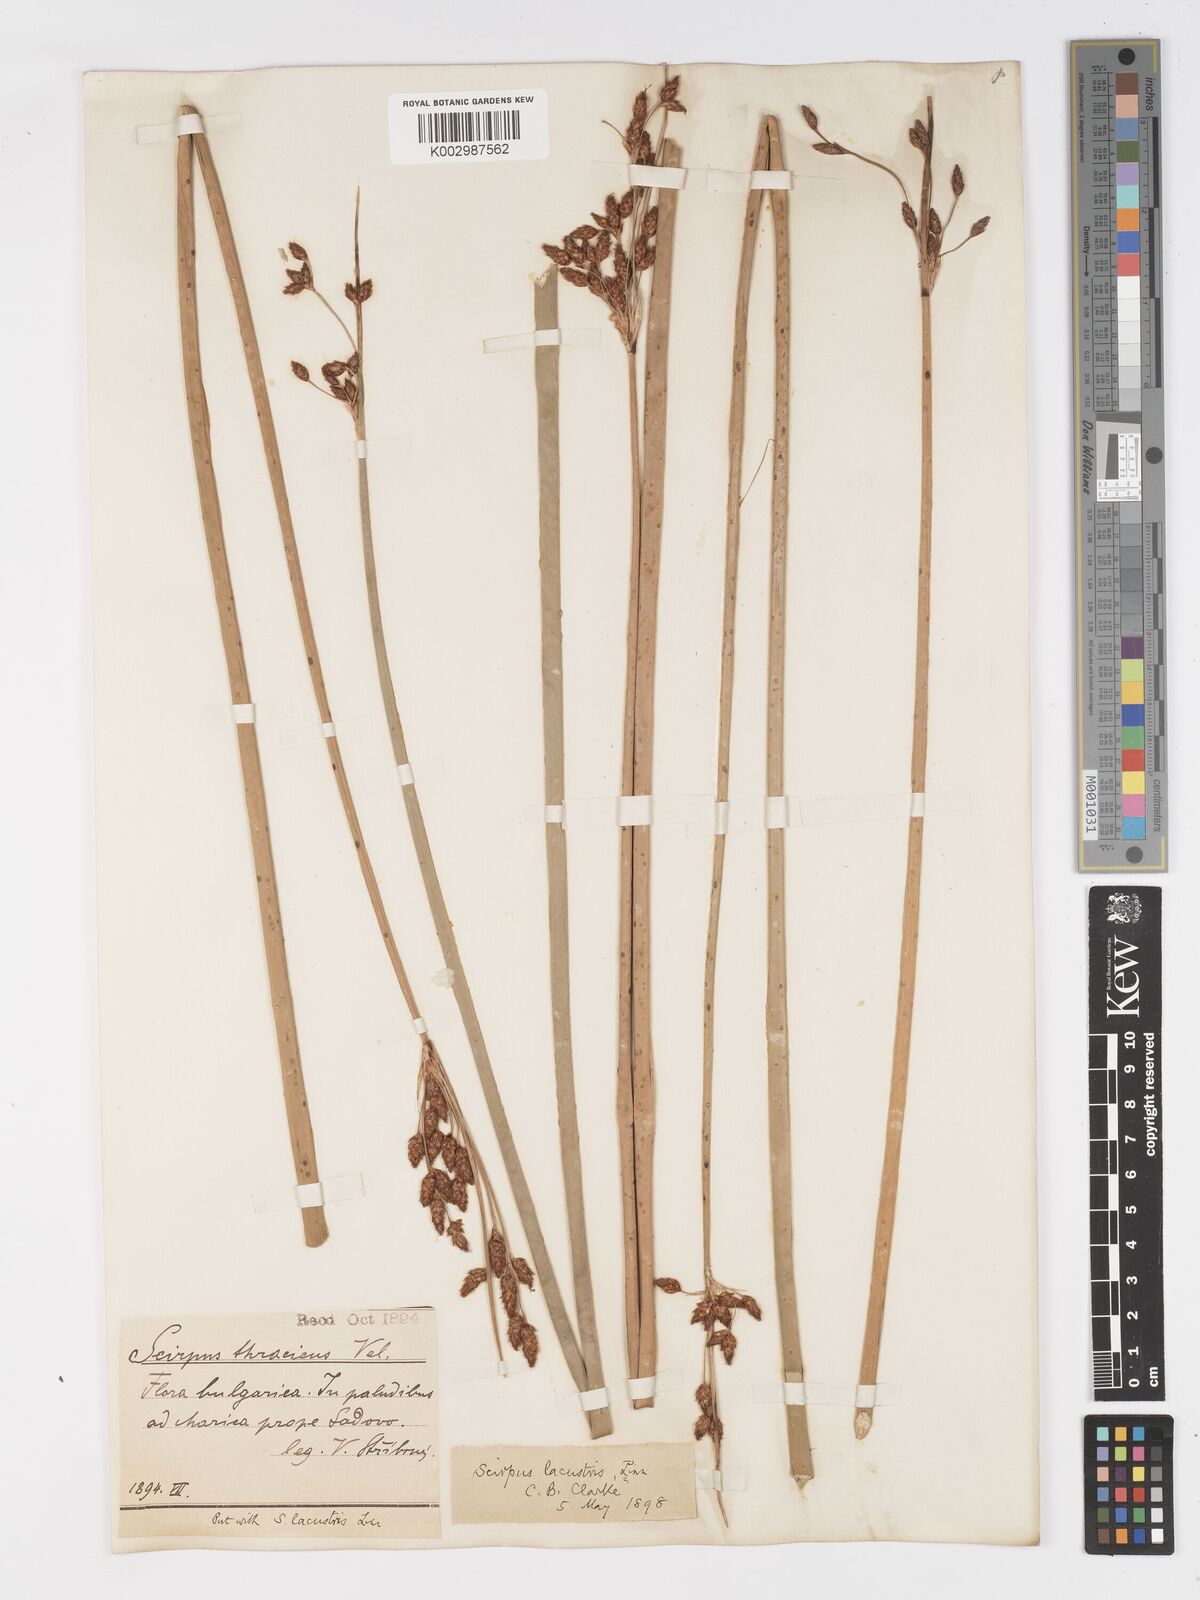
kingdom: Plantae
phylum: Tracheophyta
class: Liliopsida
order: Poales
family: Cyperaceae
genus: Schoenoplectus
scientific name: Schoenoplectus lacustris
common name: Common club-rush
